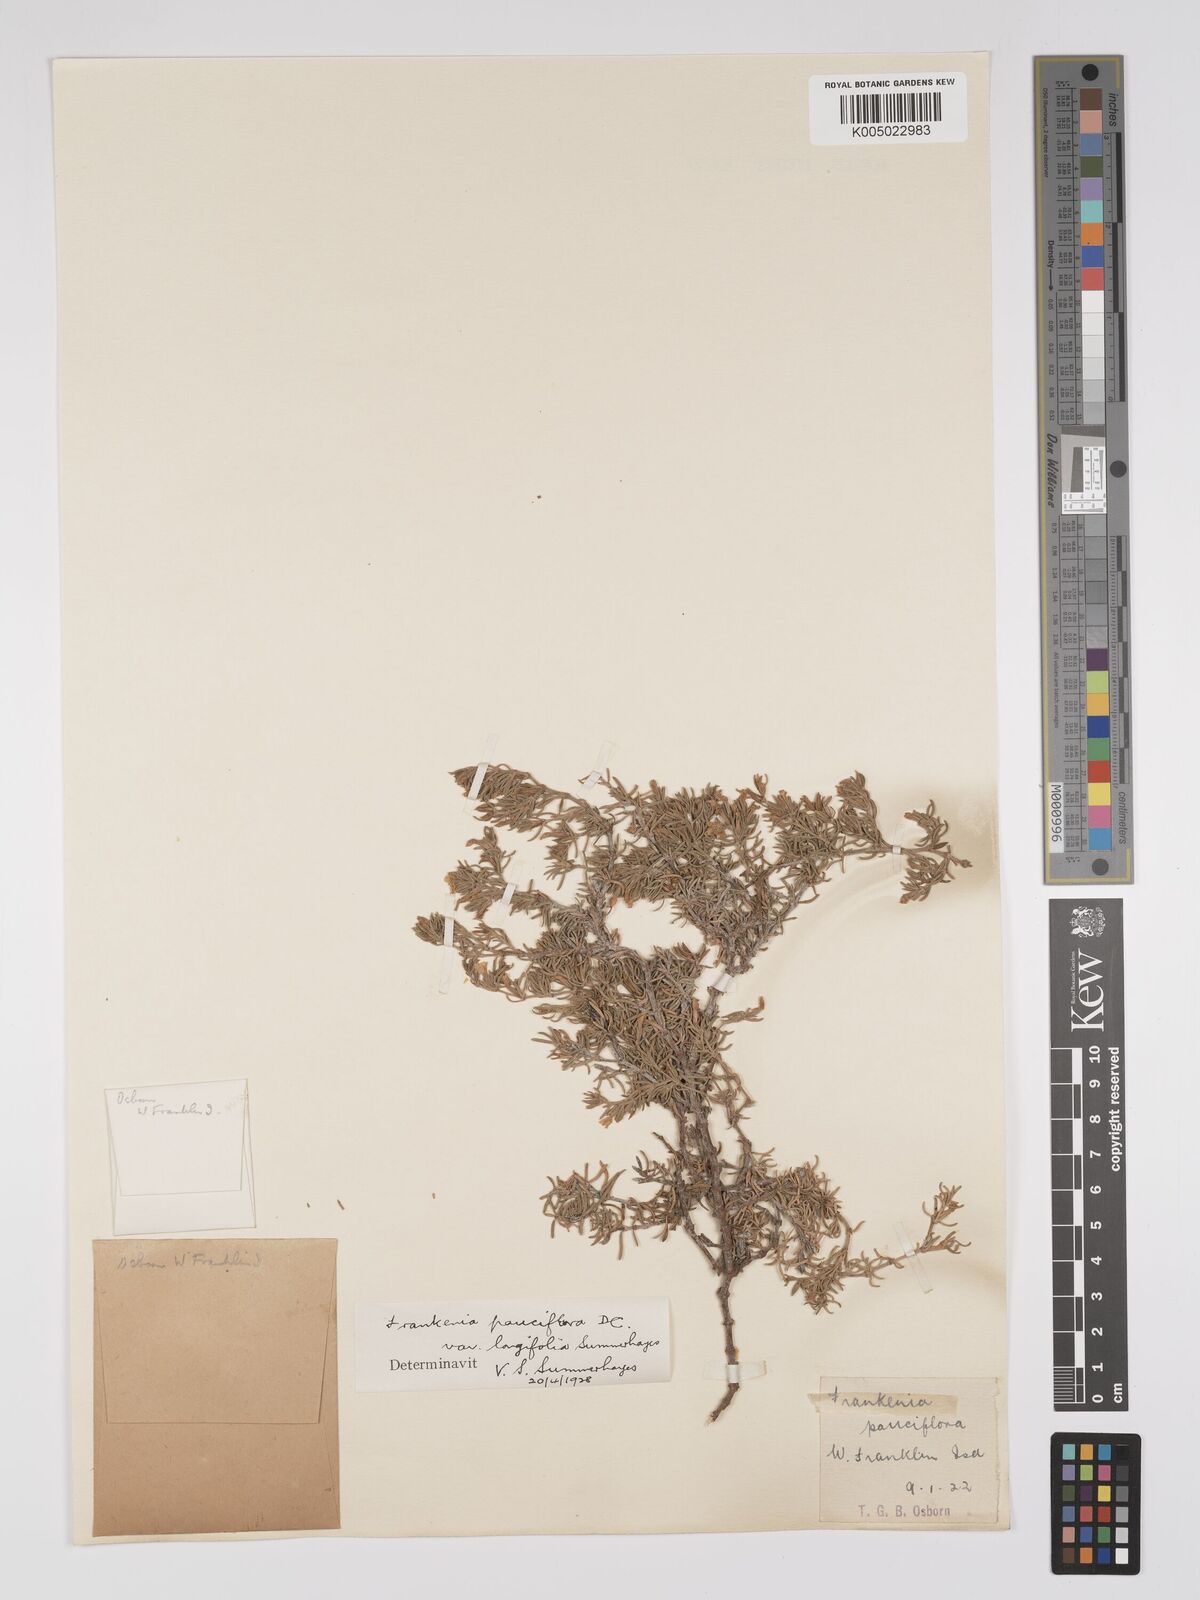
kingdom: Plantae
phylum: Tracheophyta
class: Magnoliopsida
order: Caryophyllales
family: Frankeniaceae
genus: Frankenia
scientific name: Frankenia pauciflora
